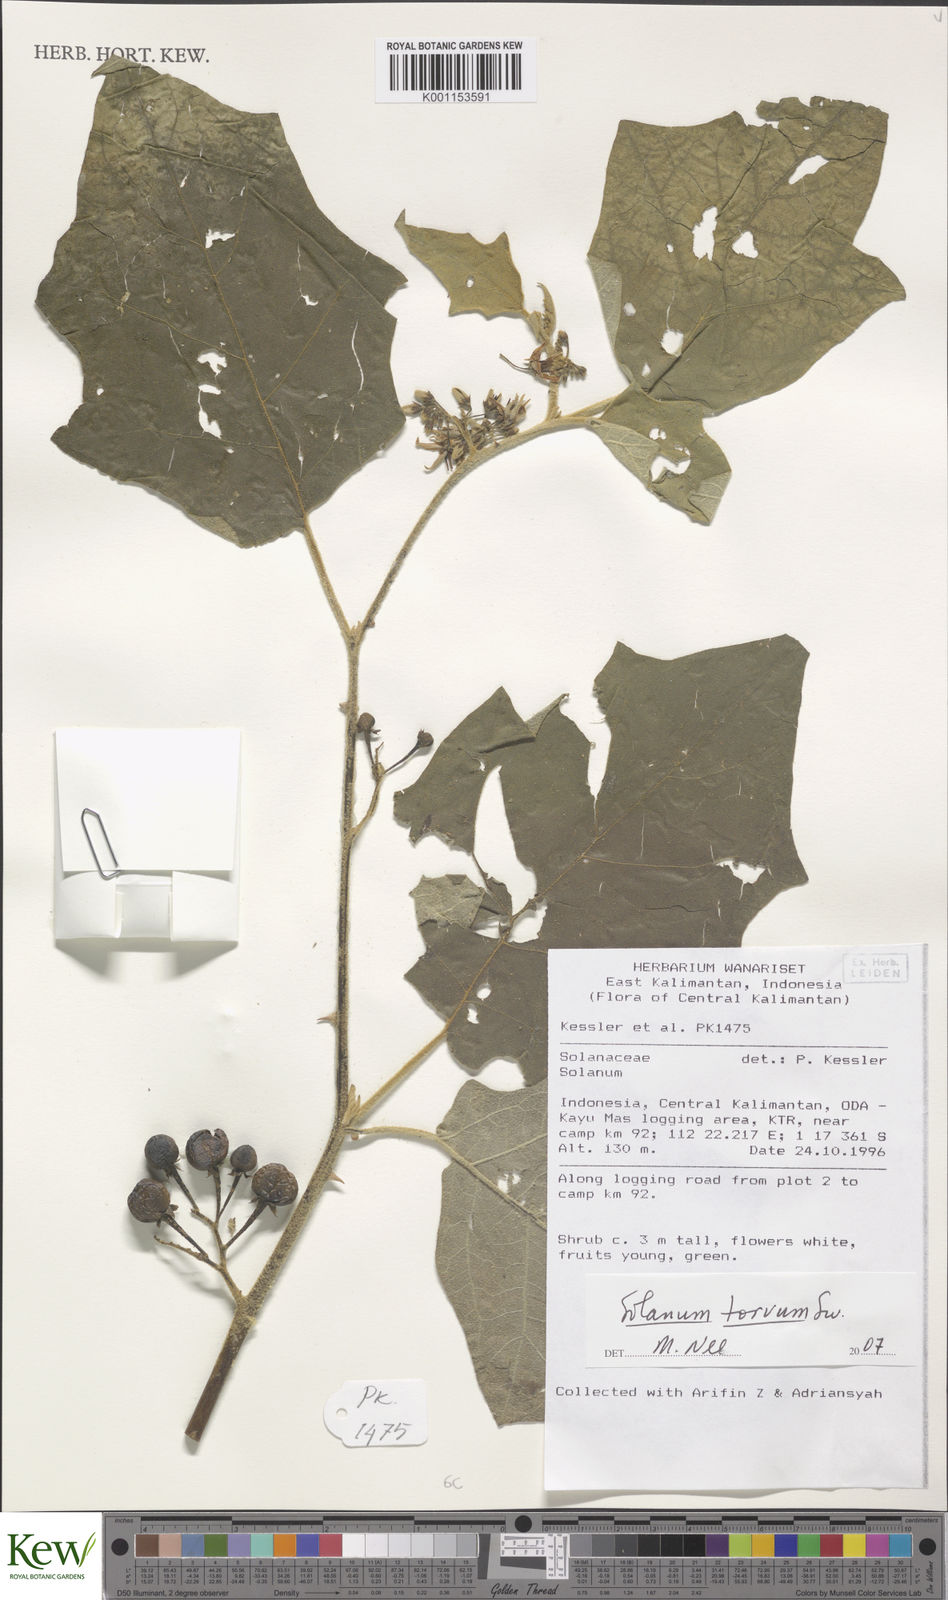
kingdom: Plantae
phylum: Tracheophyta
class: Magnoliopsida
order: Solanales
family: Solanaceae
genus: Solanum
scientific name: Solanum torvum
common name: Turkey berry
